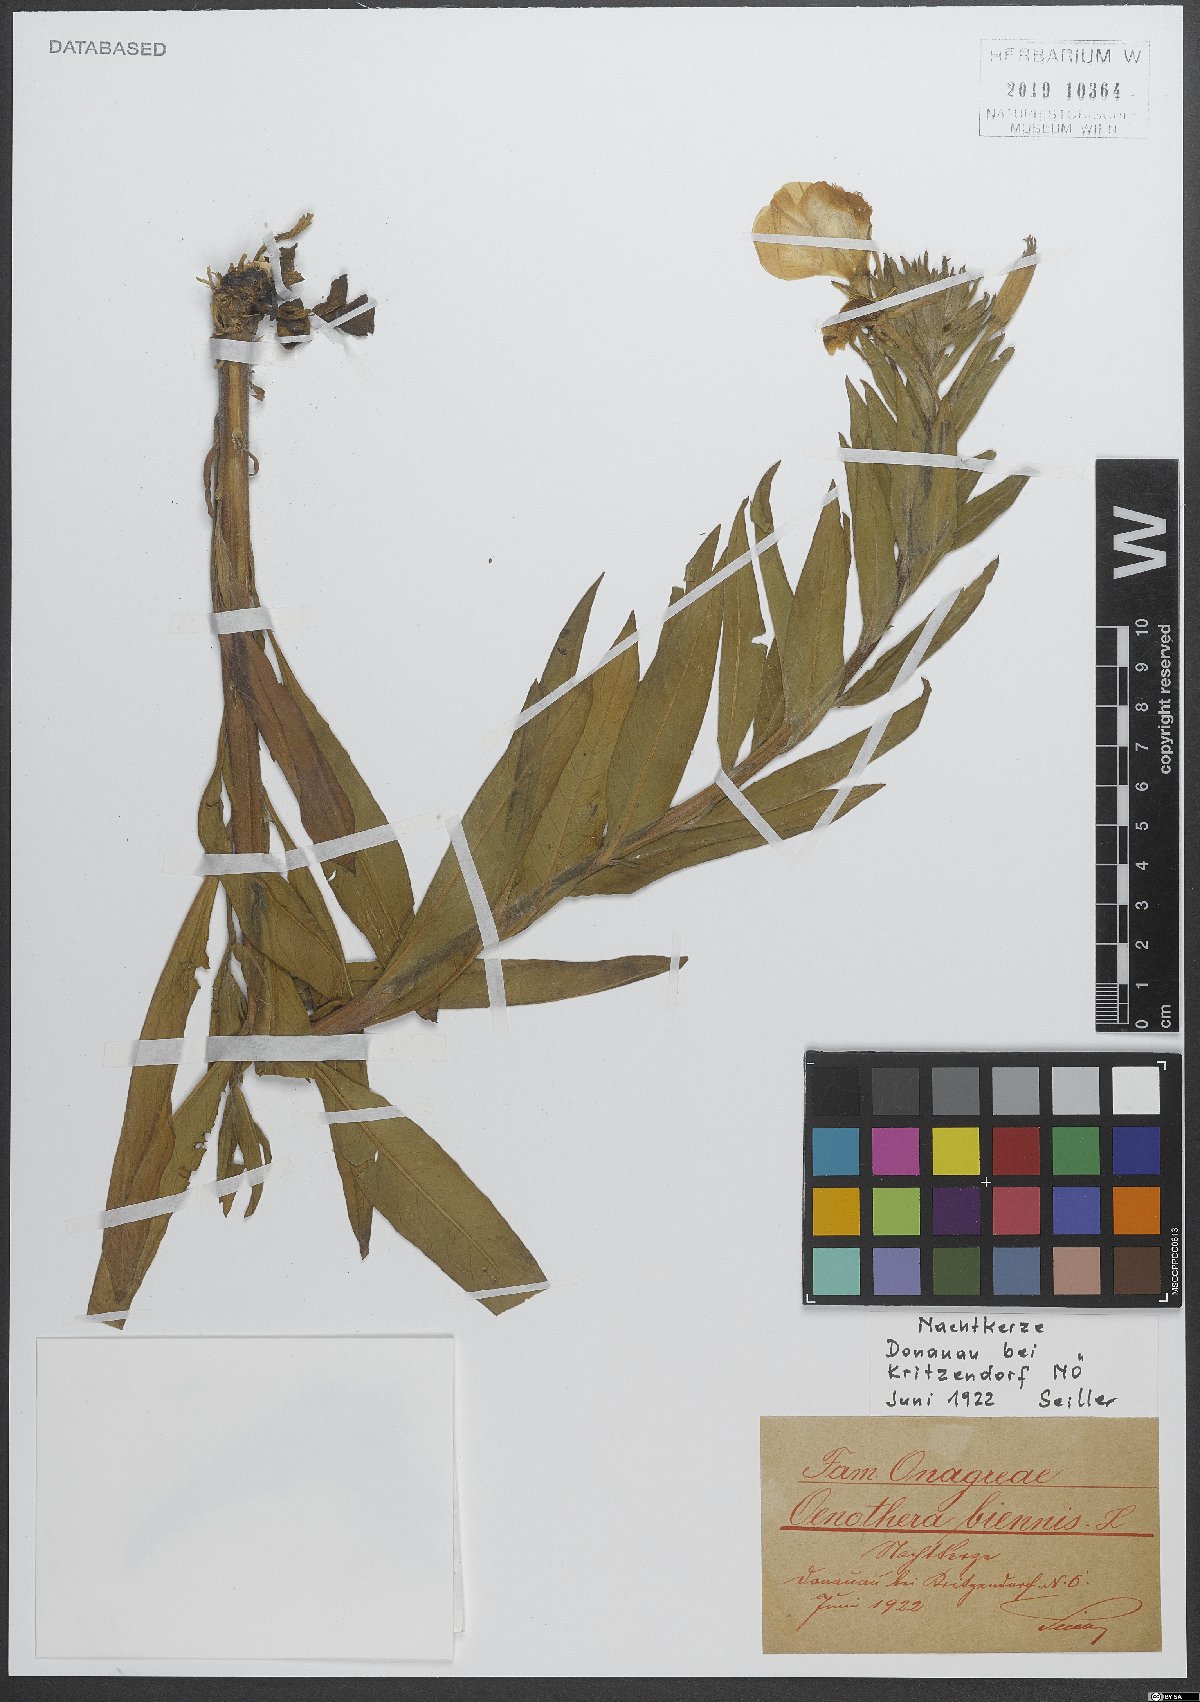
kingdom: Plantae
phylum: Tracheophyta
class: Magnoliopsida
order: Myrtales
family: Onagraceae
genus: Oenothera
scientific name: Oenothera biennis
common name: Common evening-primrose
